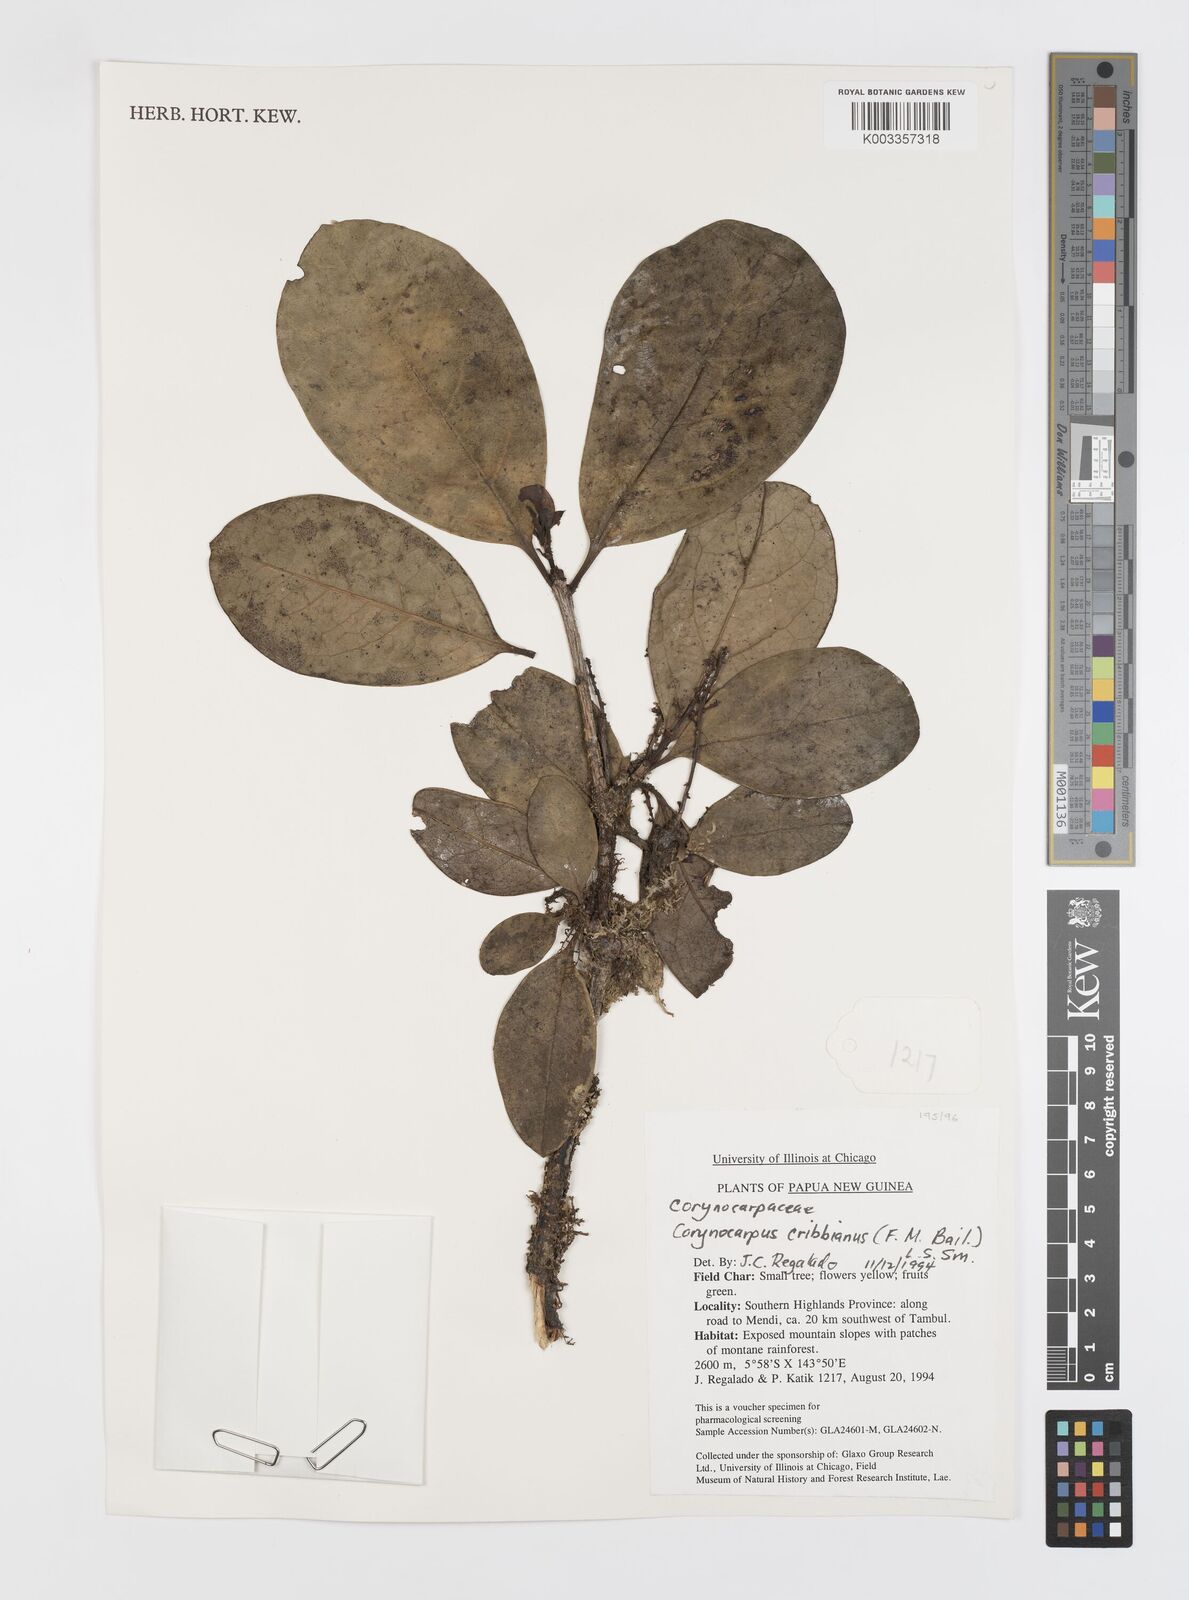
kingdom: Plantae
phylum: Tracheophyta
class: Magnoliopsida
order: Cucurbitales
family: Corynocarpaceae
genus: Corynocarpus
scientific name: Corynocarpus cribbianus
